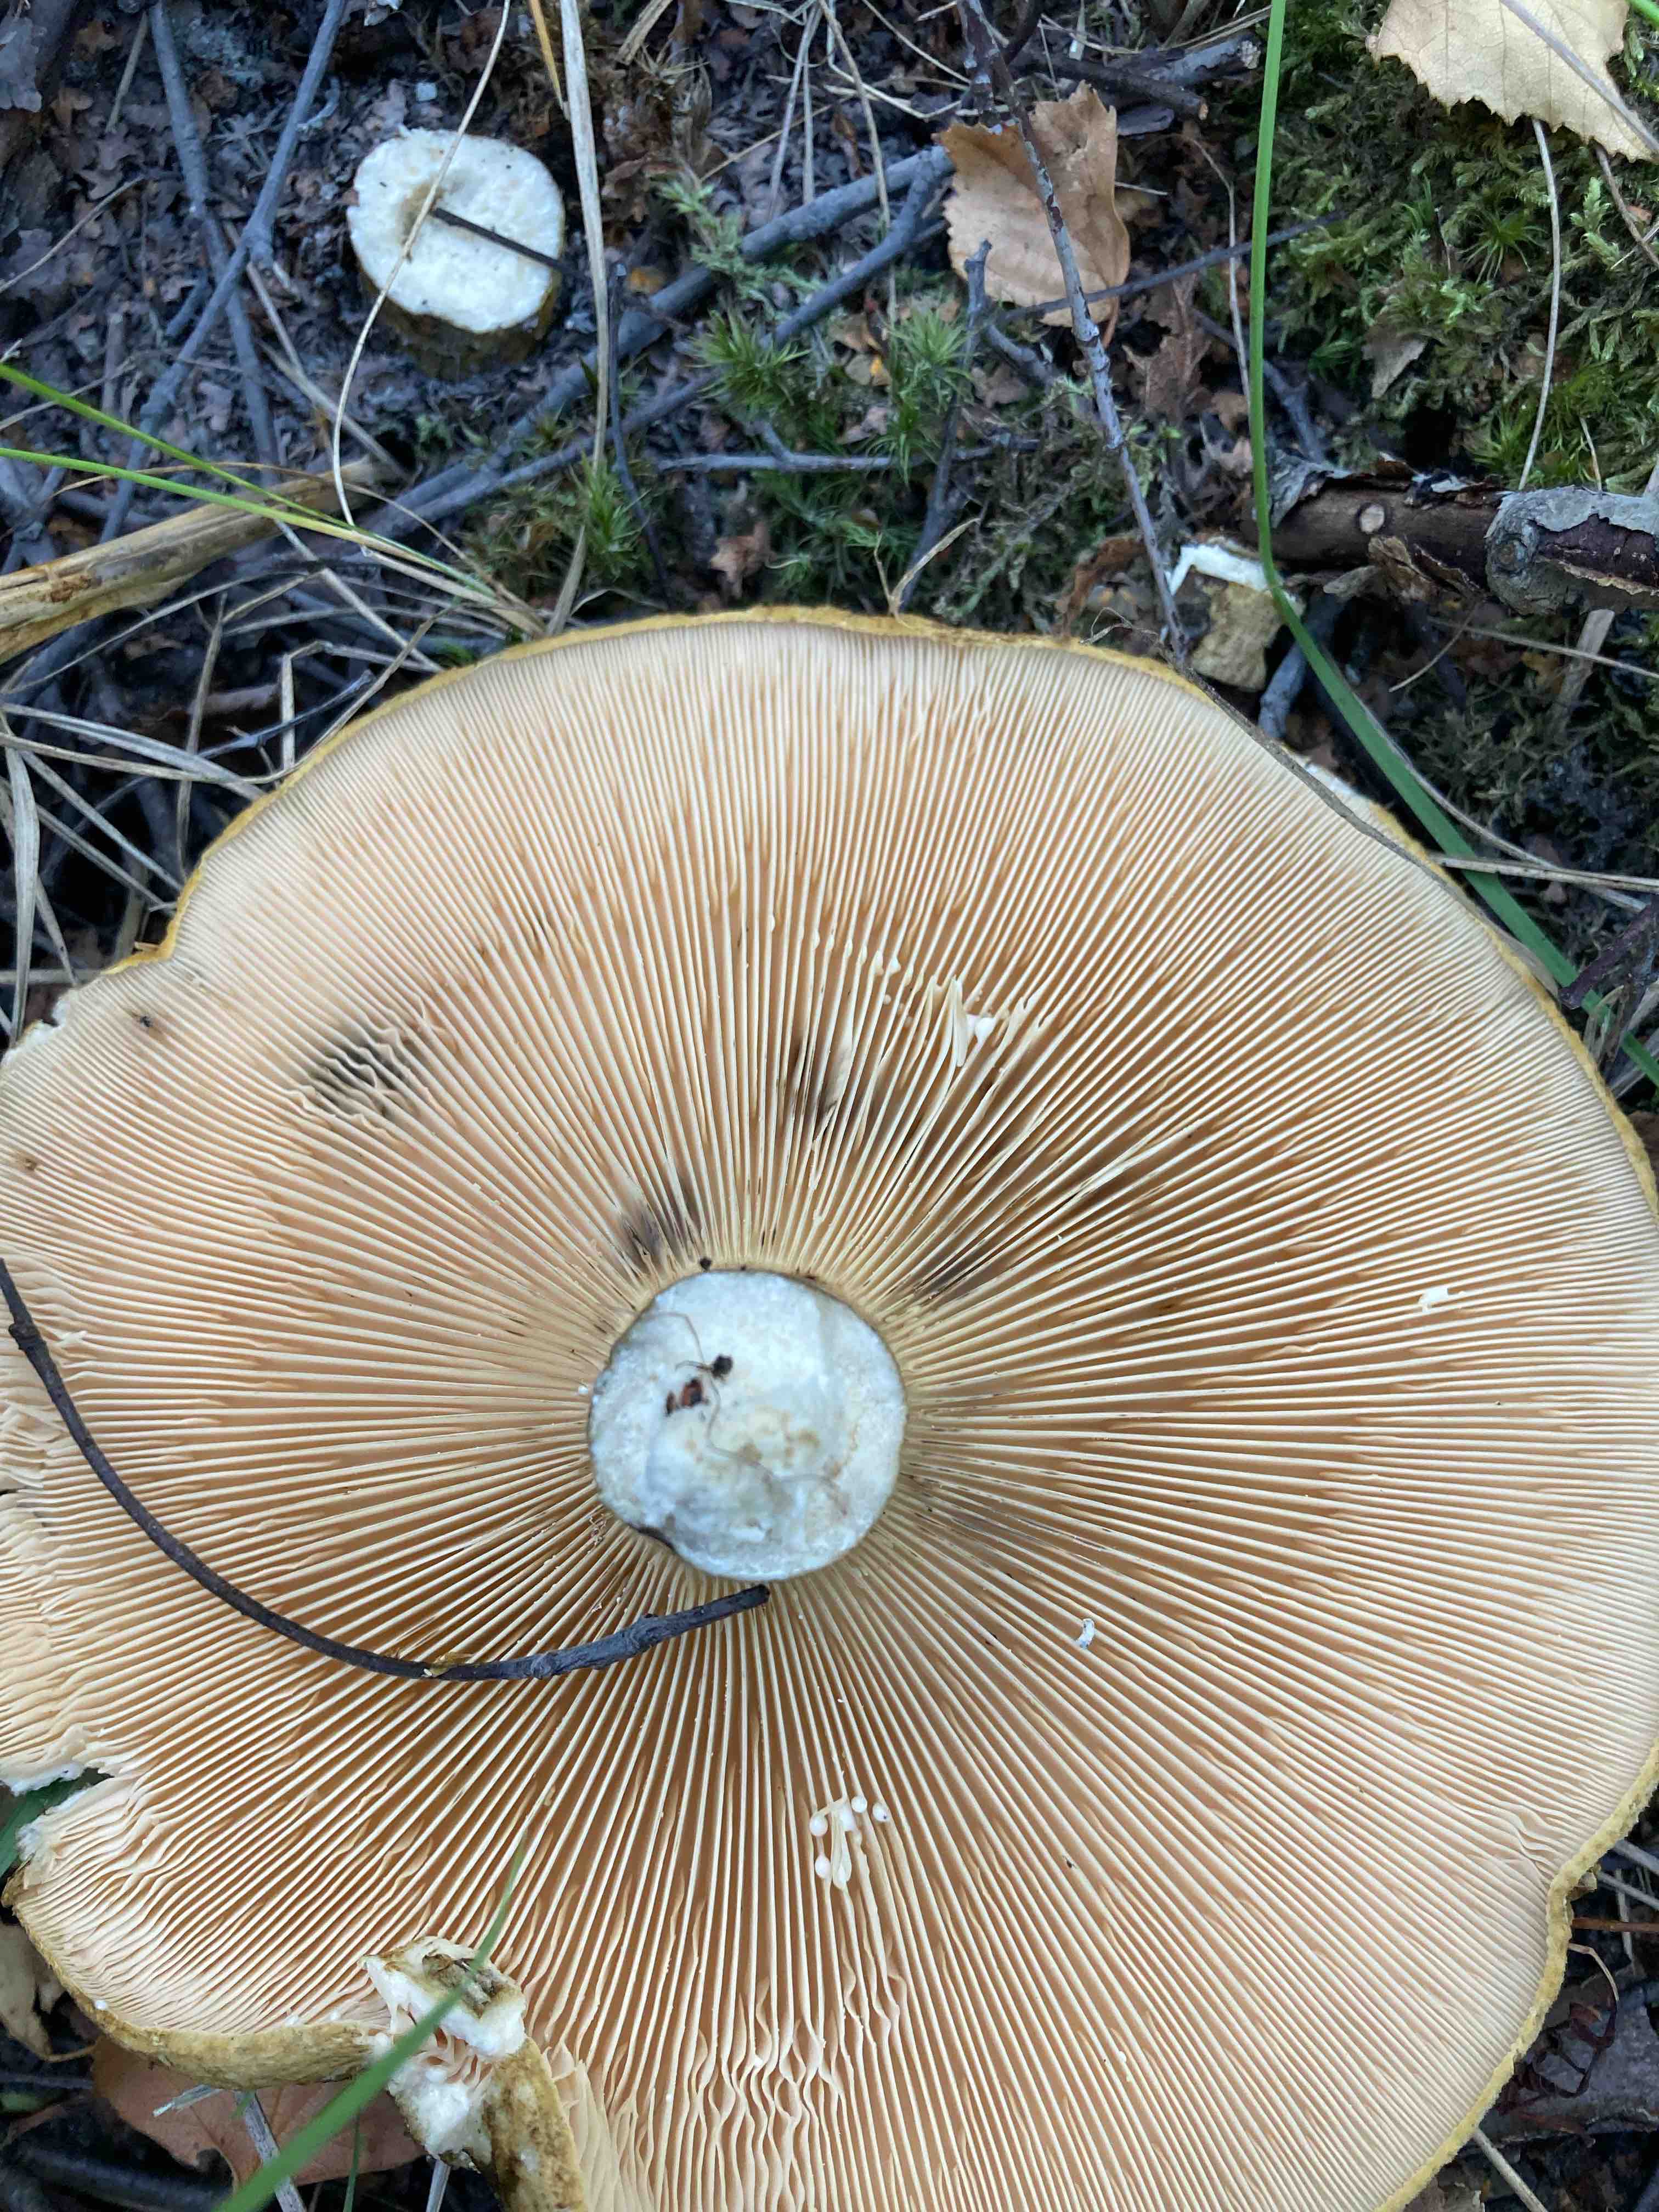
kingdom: Fungi
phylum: Basidiomycota
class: Agaricomycetes
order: Russulales
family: Russulaceae
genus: Lactarius
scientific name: Lactarius necator
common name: manddraber-mælkehat
